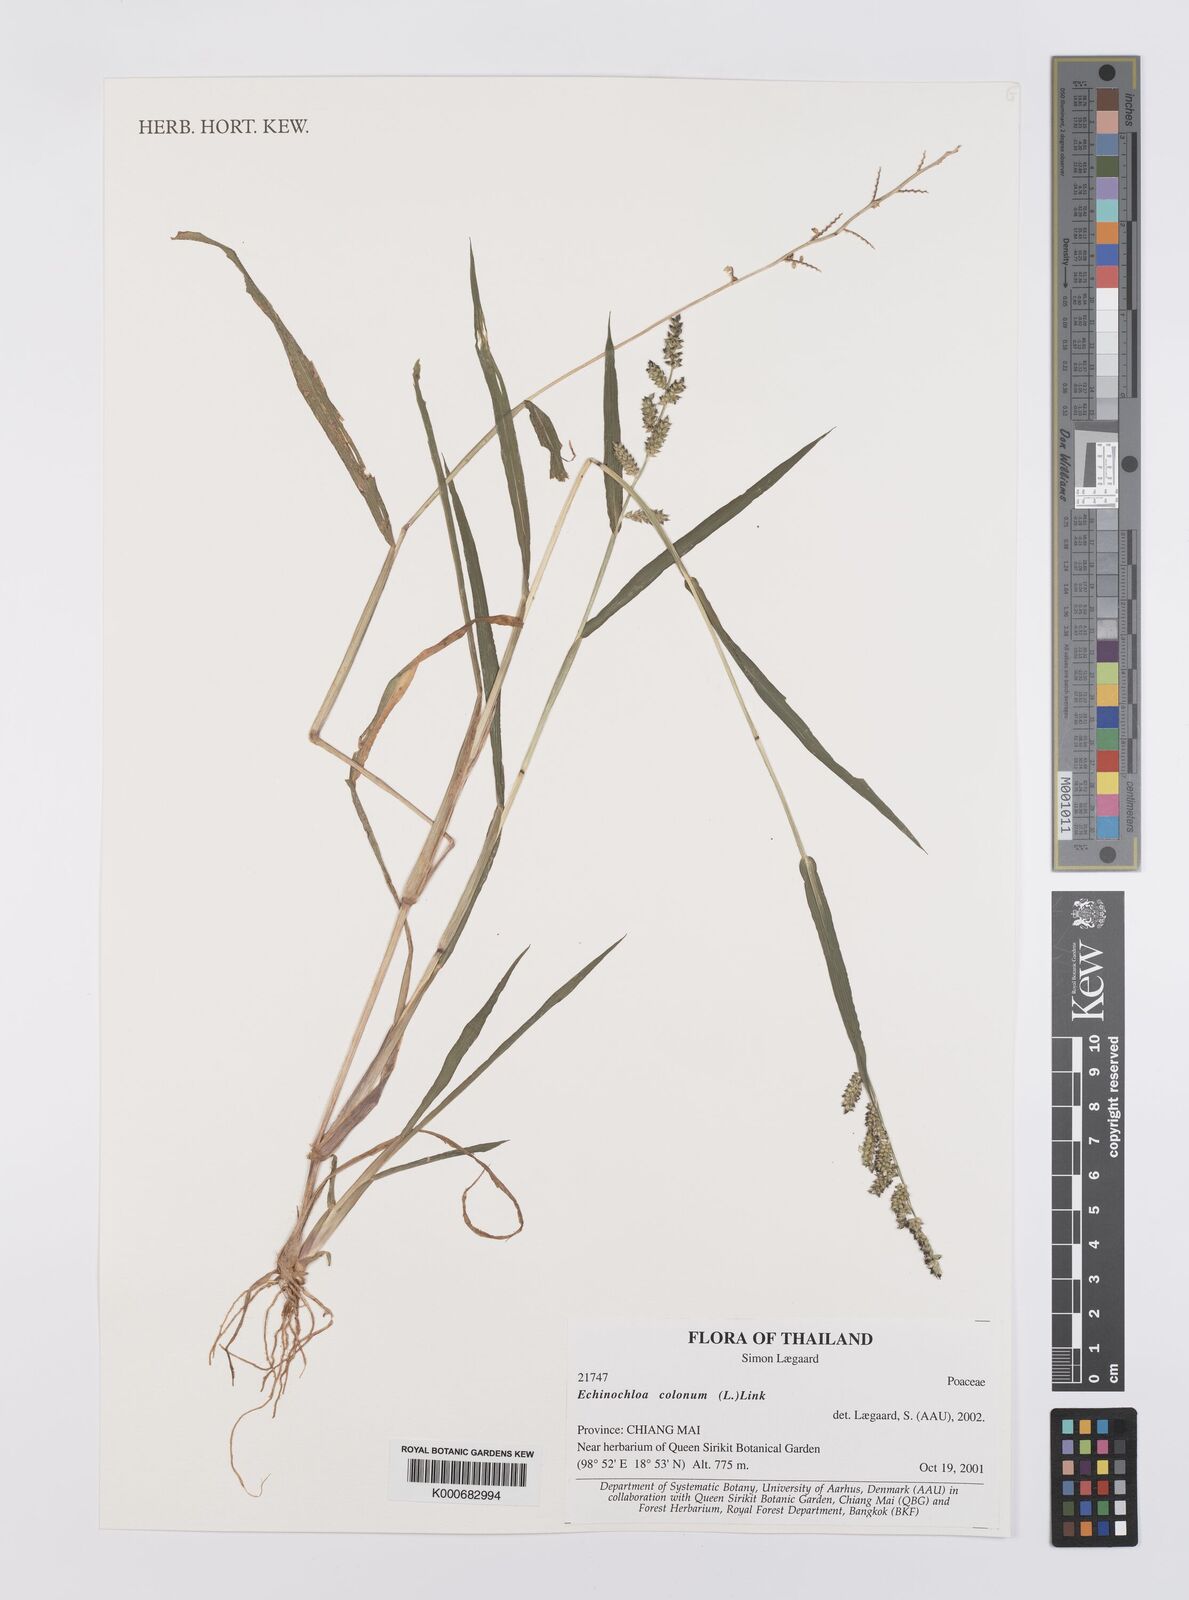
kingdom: Plantae
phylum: Tracheophyta
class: Liliopsida
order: Poales
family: Poaceae
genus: Echinochloa
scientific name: Echinochloa colonum
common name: Jungle rice
